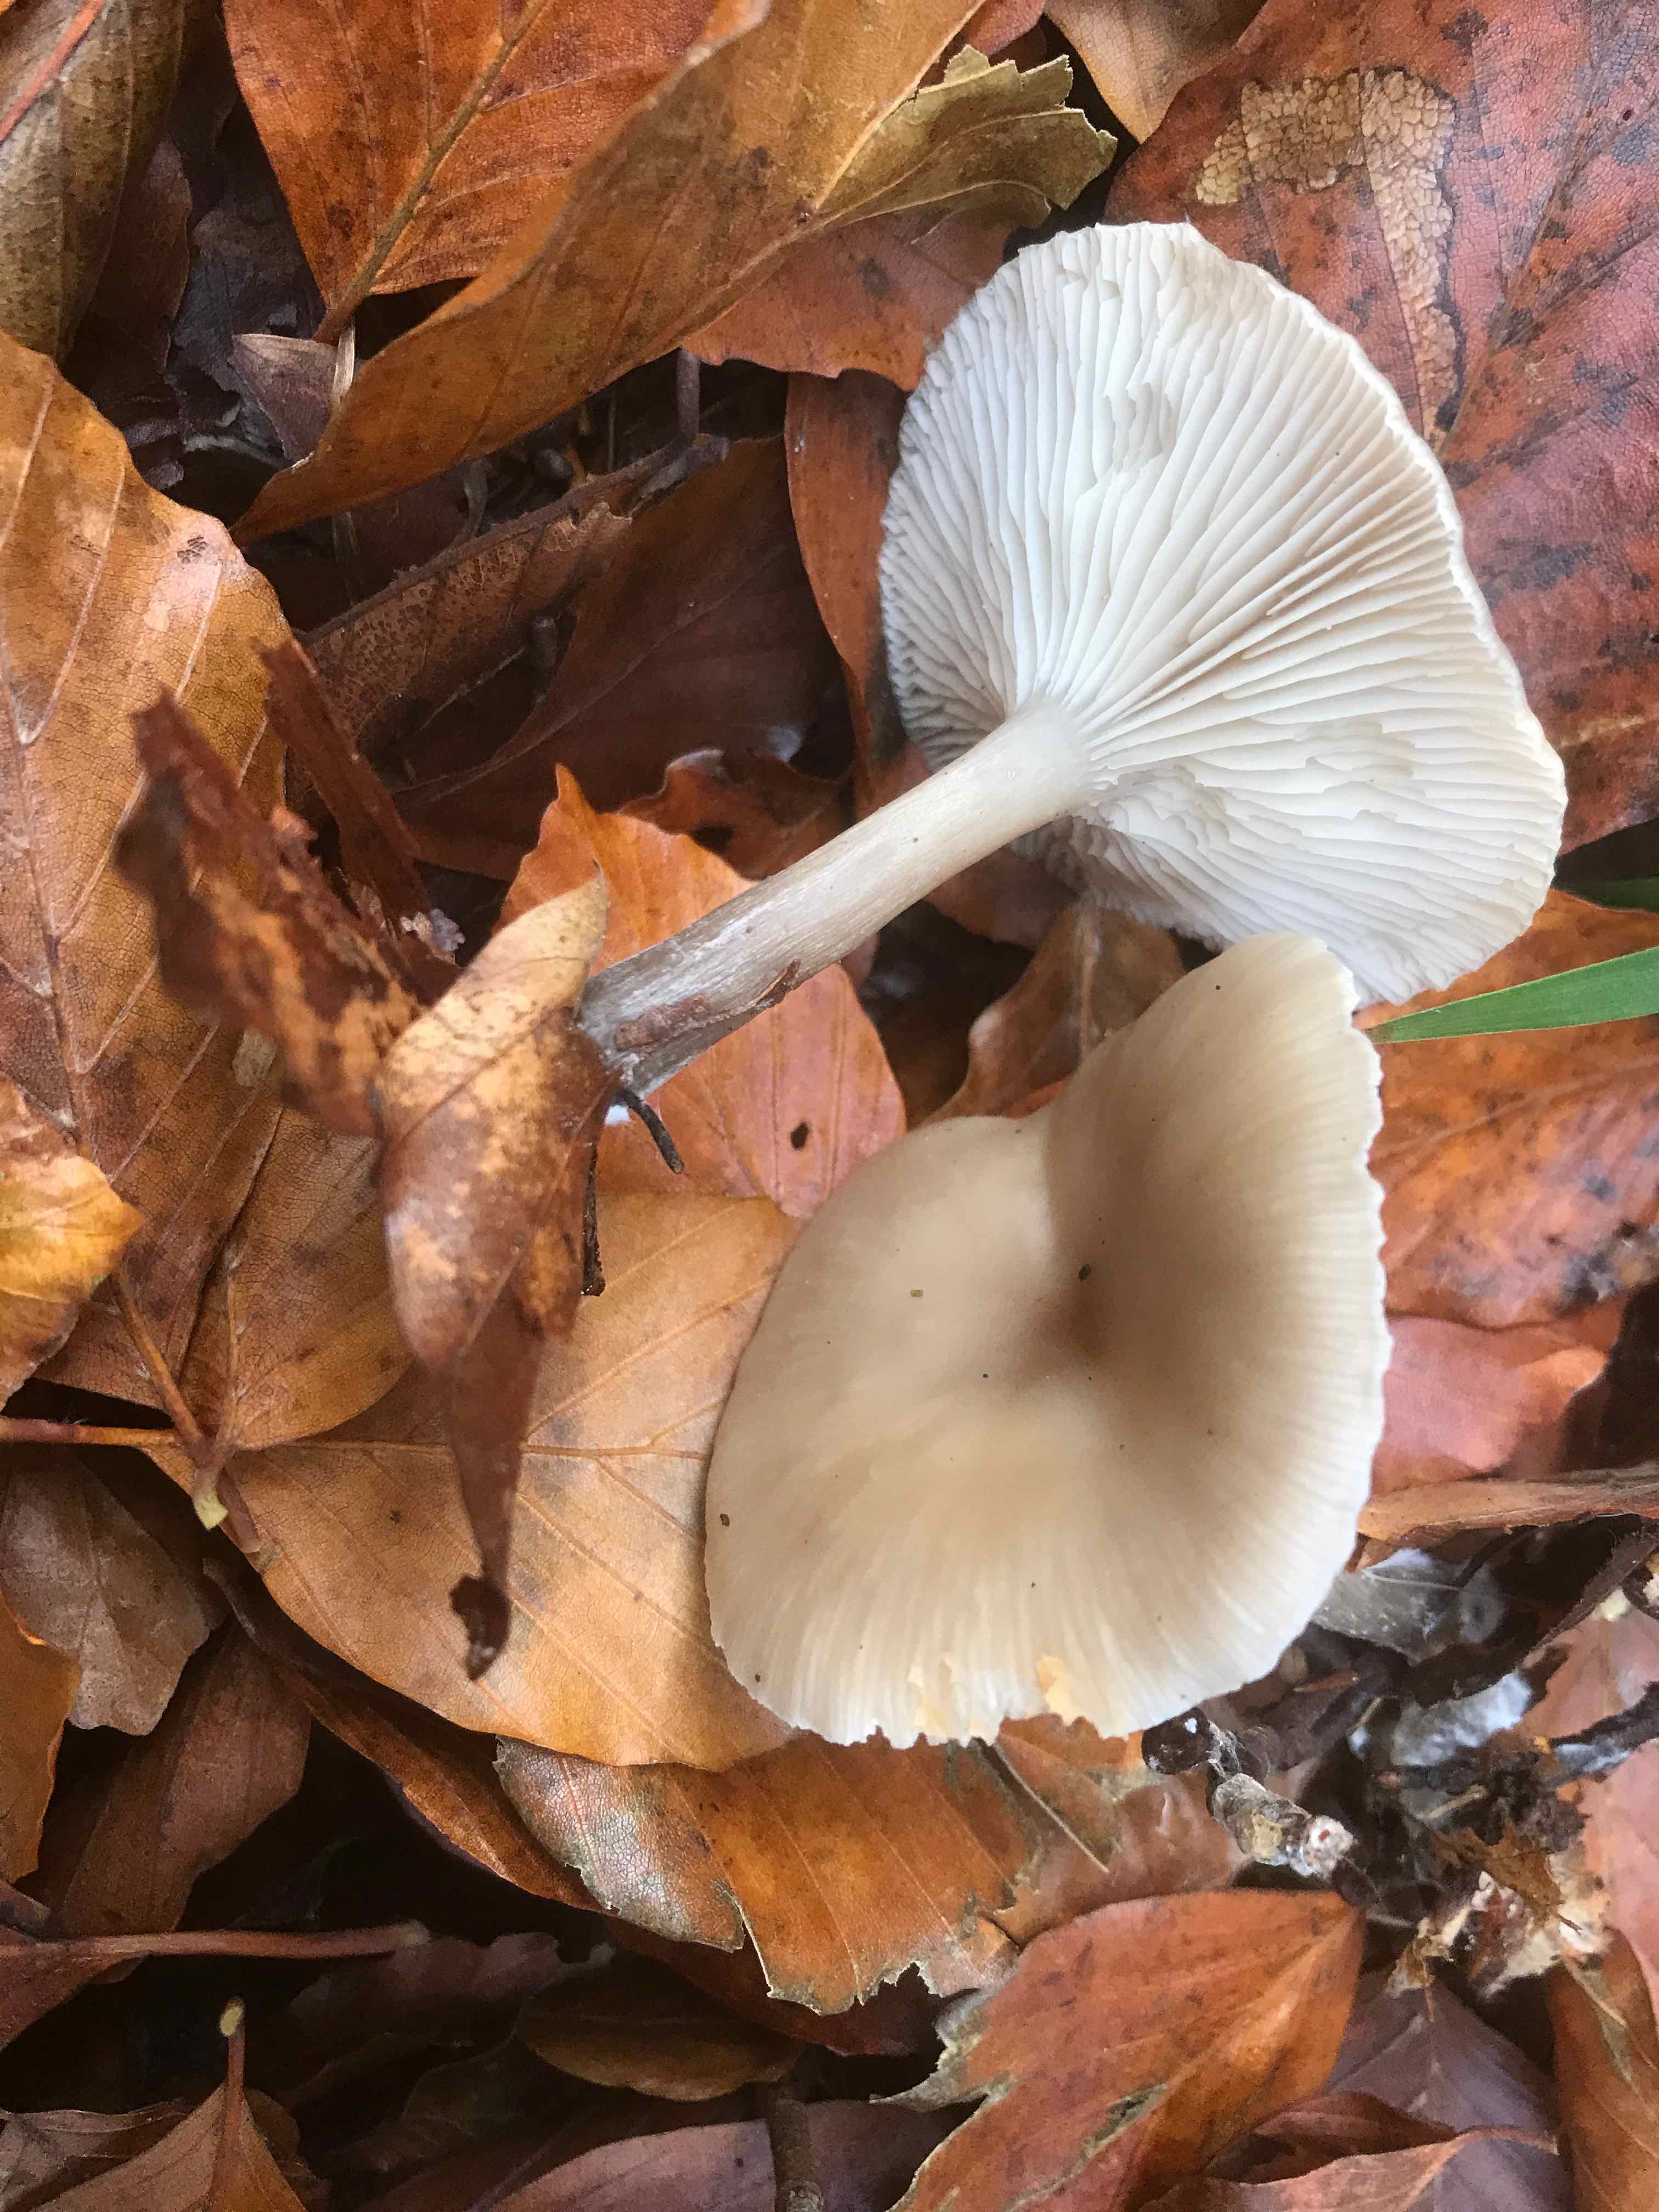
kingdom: Fungi
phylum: Basidiomycota
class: Agaricomycetes
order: Agaricales
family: Tricholomataceae
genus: Clitocybe
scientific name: Clitocybe metachroa
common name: grå tragthat
